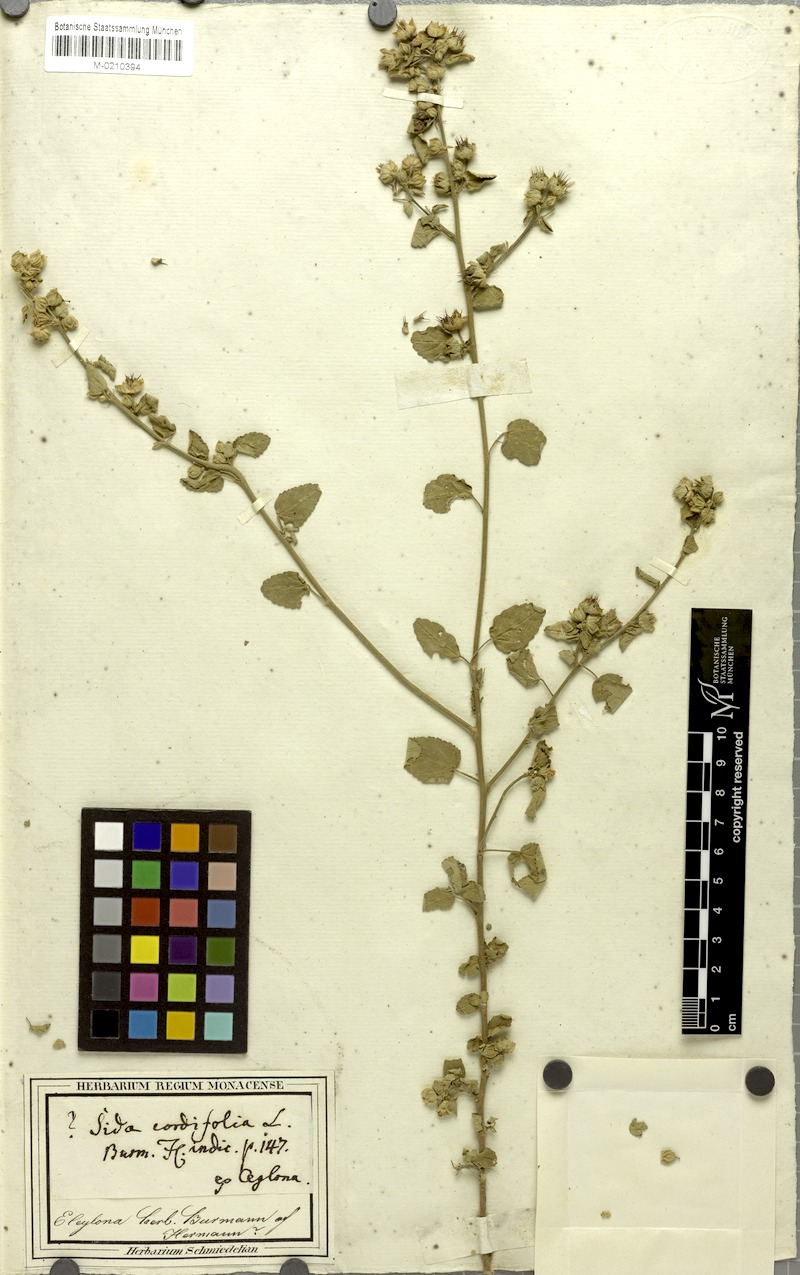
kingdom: Plantae
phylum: Tracheophyta
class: Magnoliopsida
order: Malvales
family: Malvaceae
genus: Sida
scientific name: Sida alnifolia
